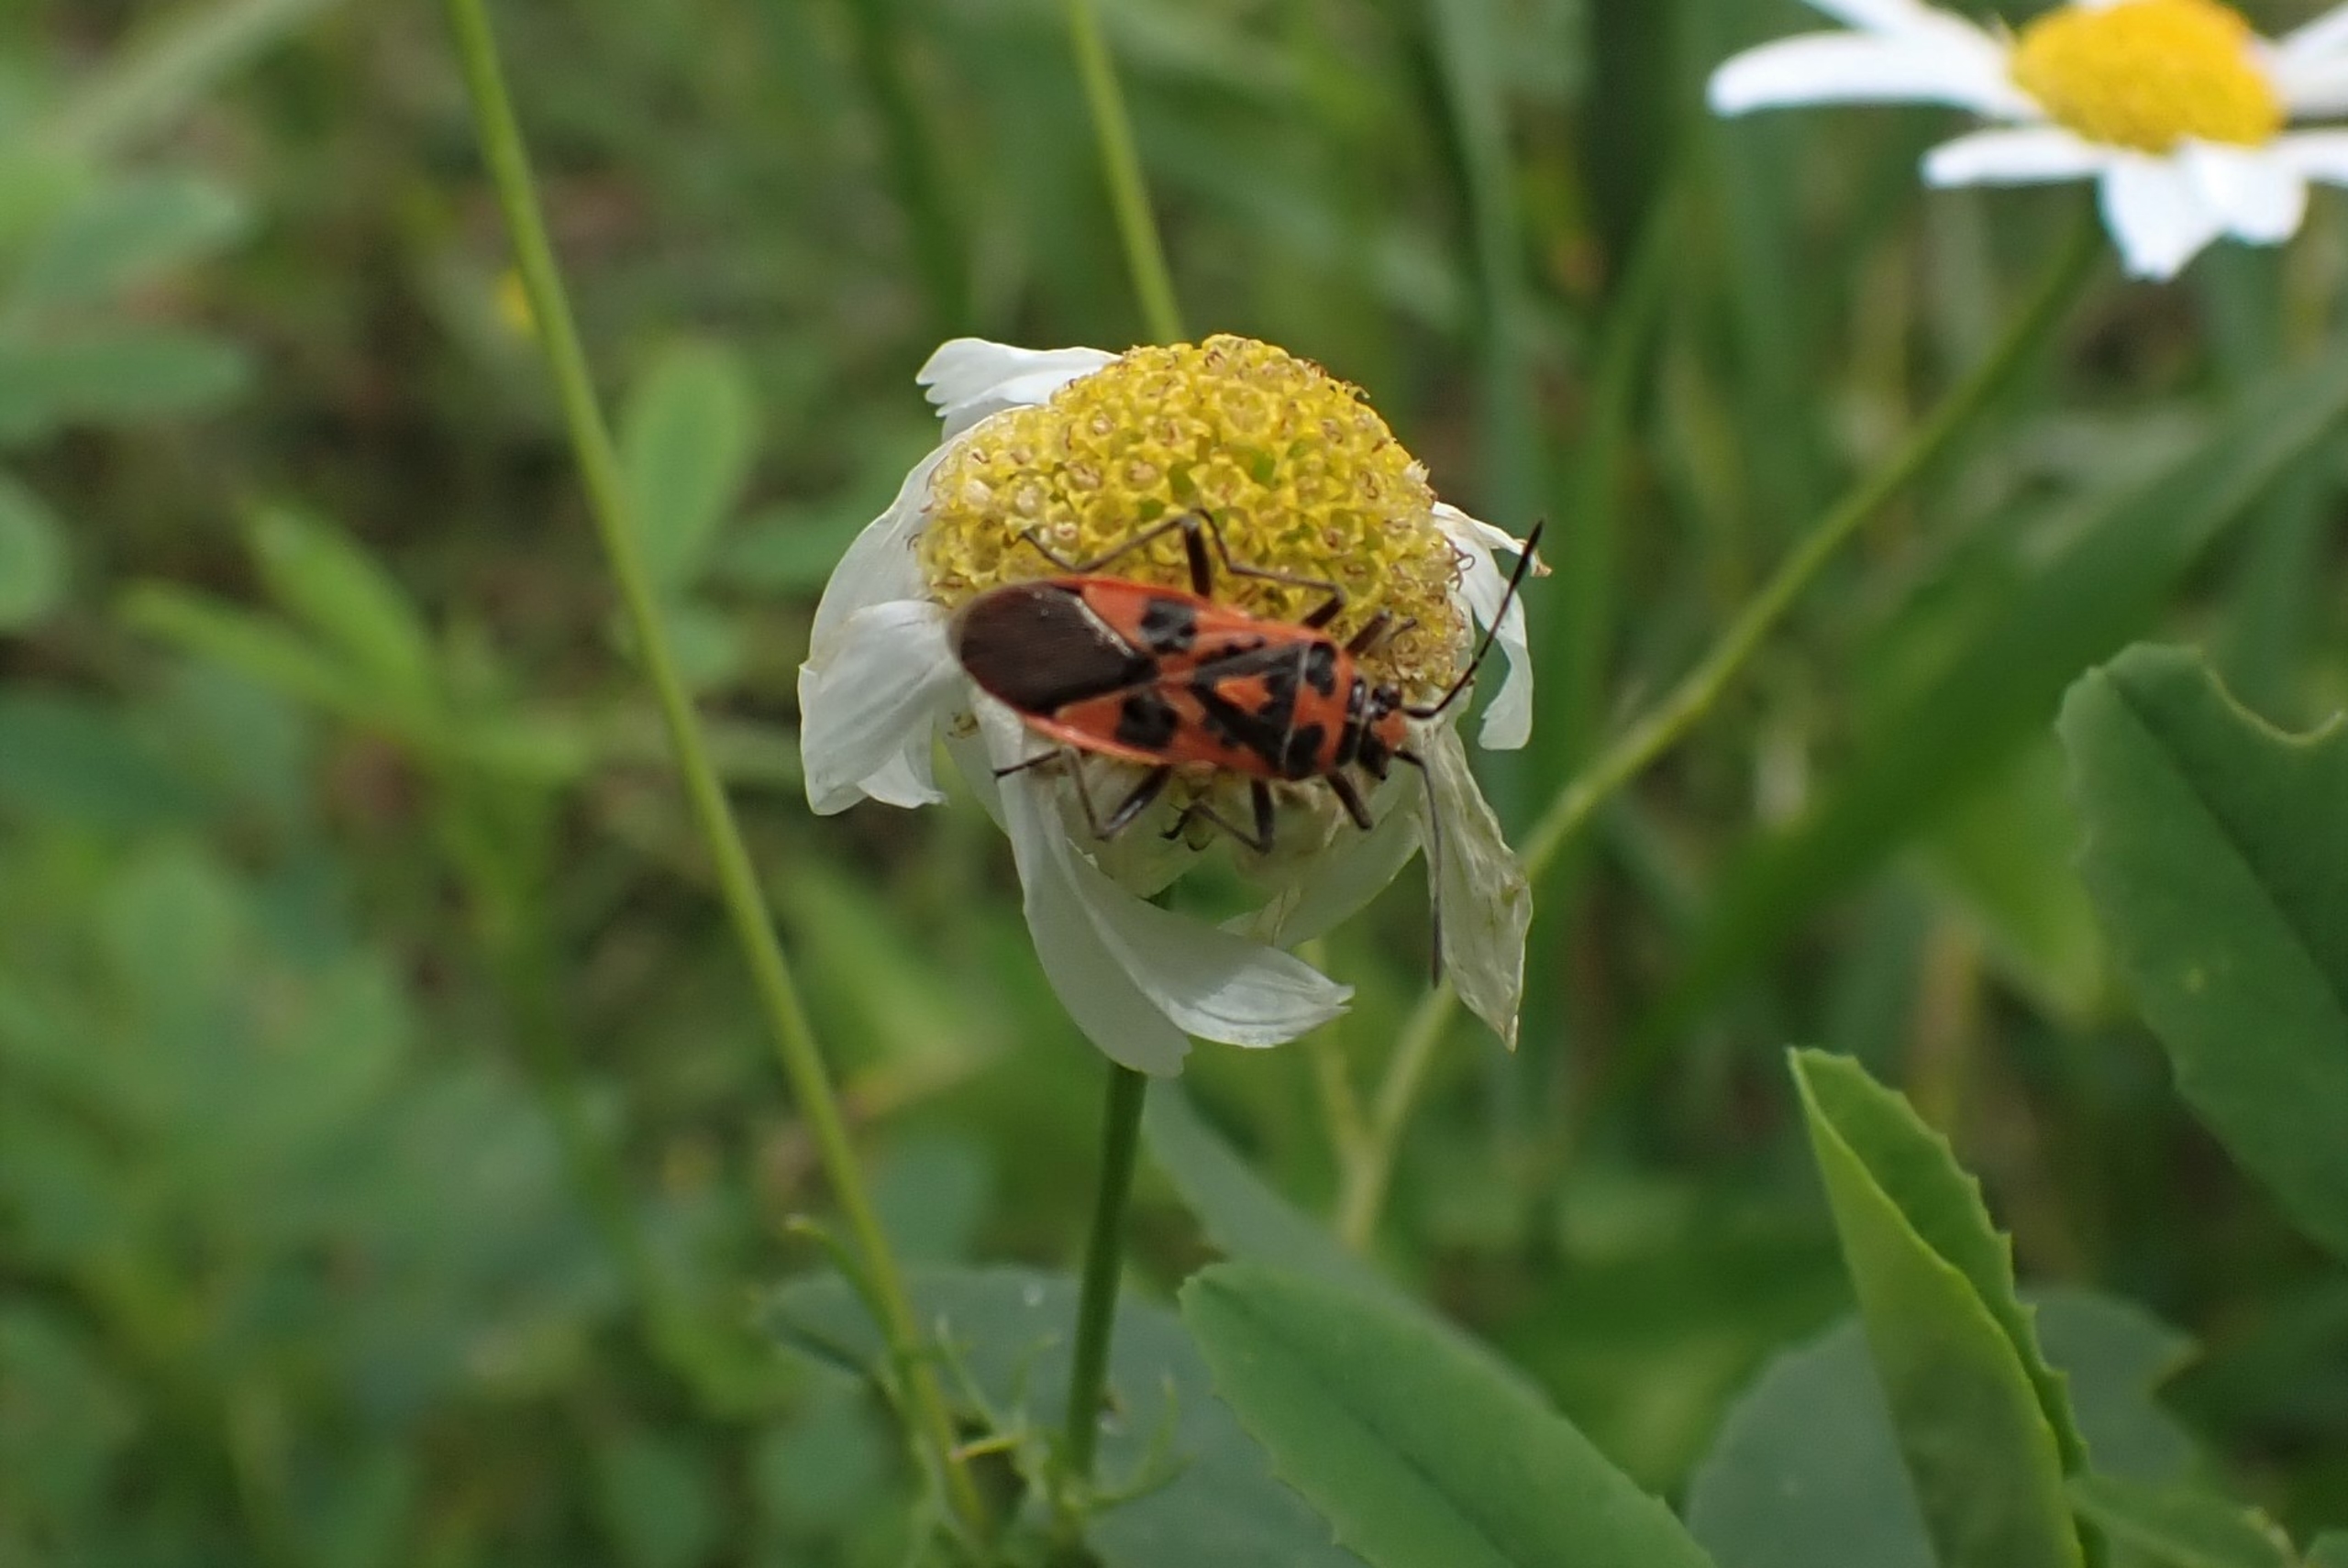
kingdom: Animalia
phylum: Arthropoda
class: Insecta
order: Hemiptera
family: Rhopalidae
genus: Corizus
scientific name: Corizus hyoscyami
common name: Rød kanttæge
